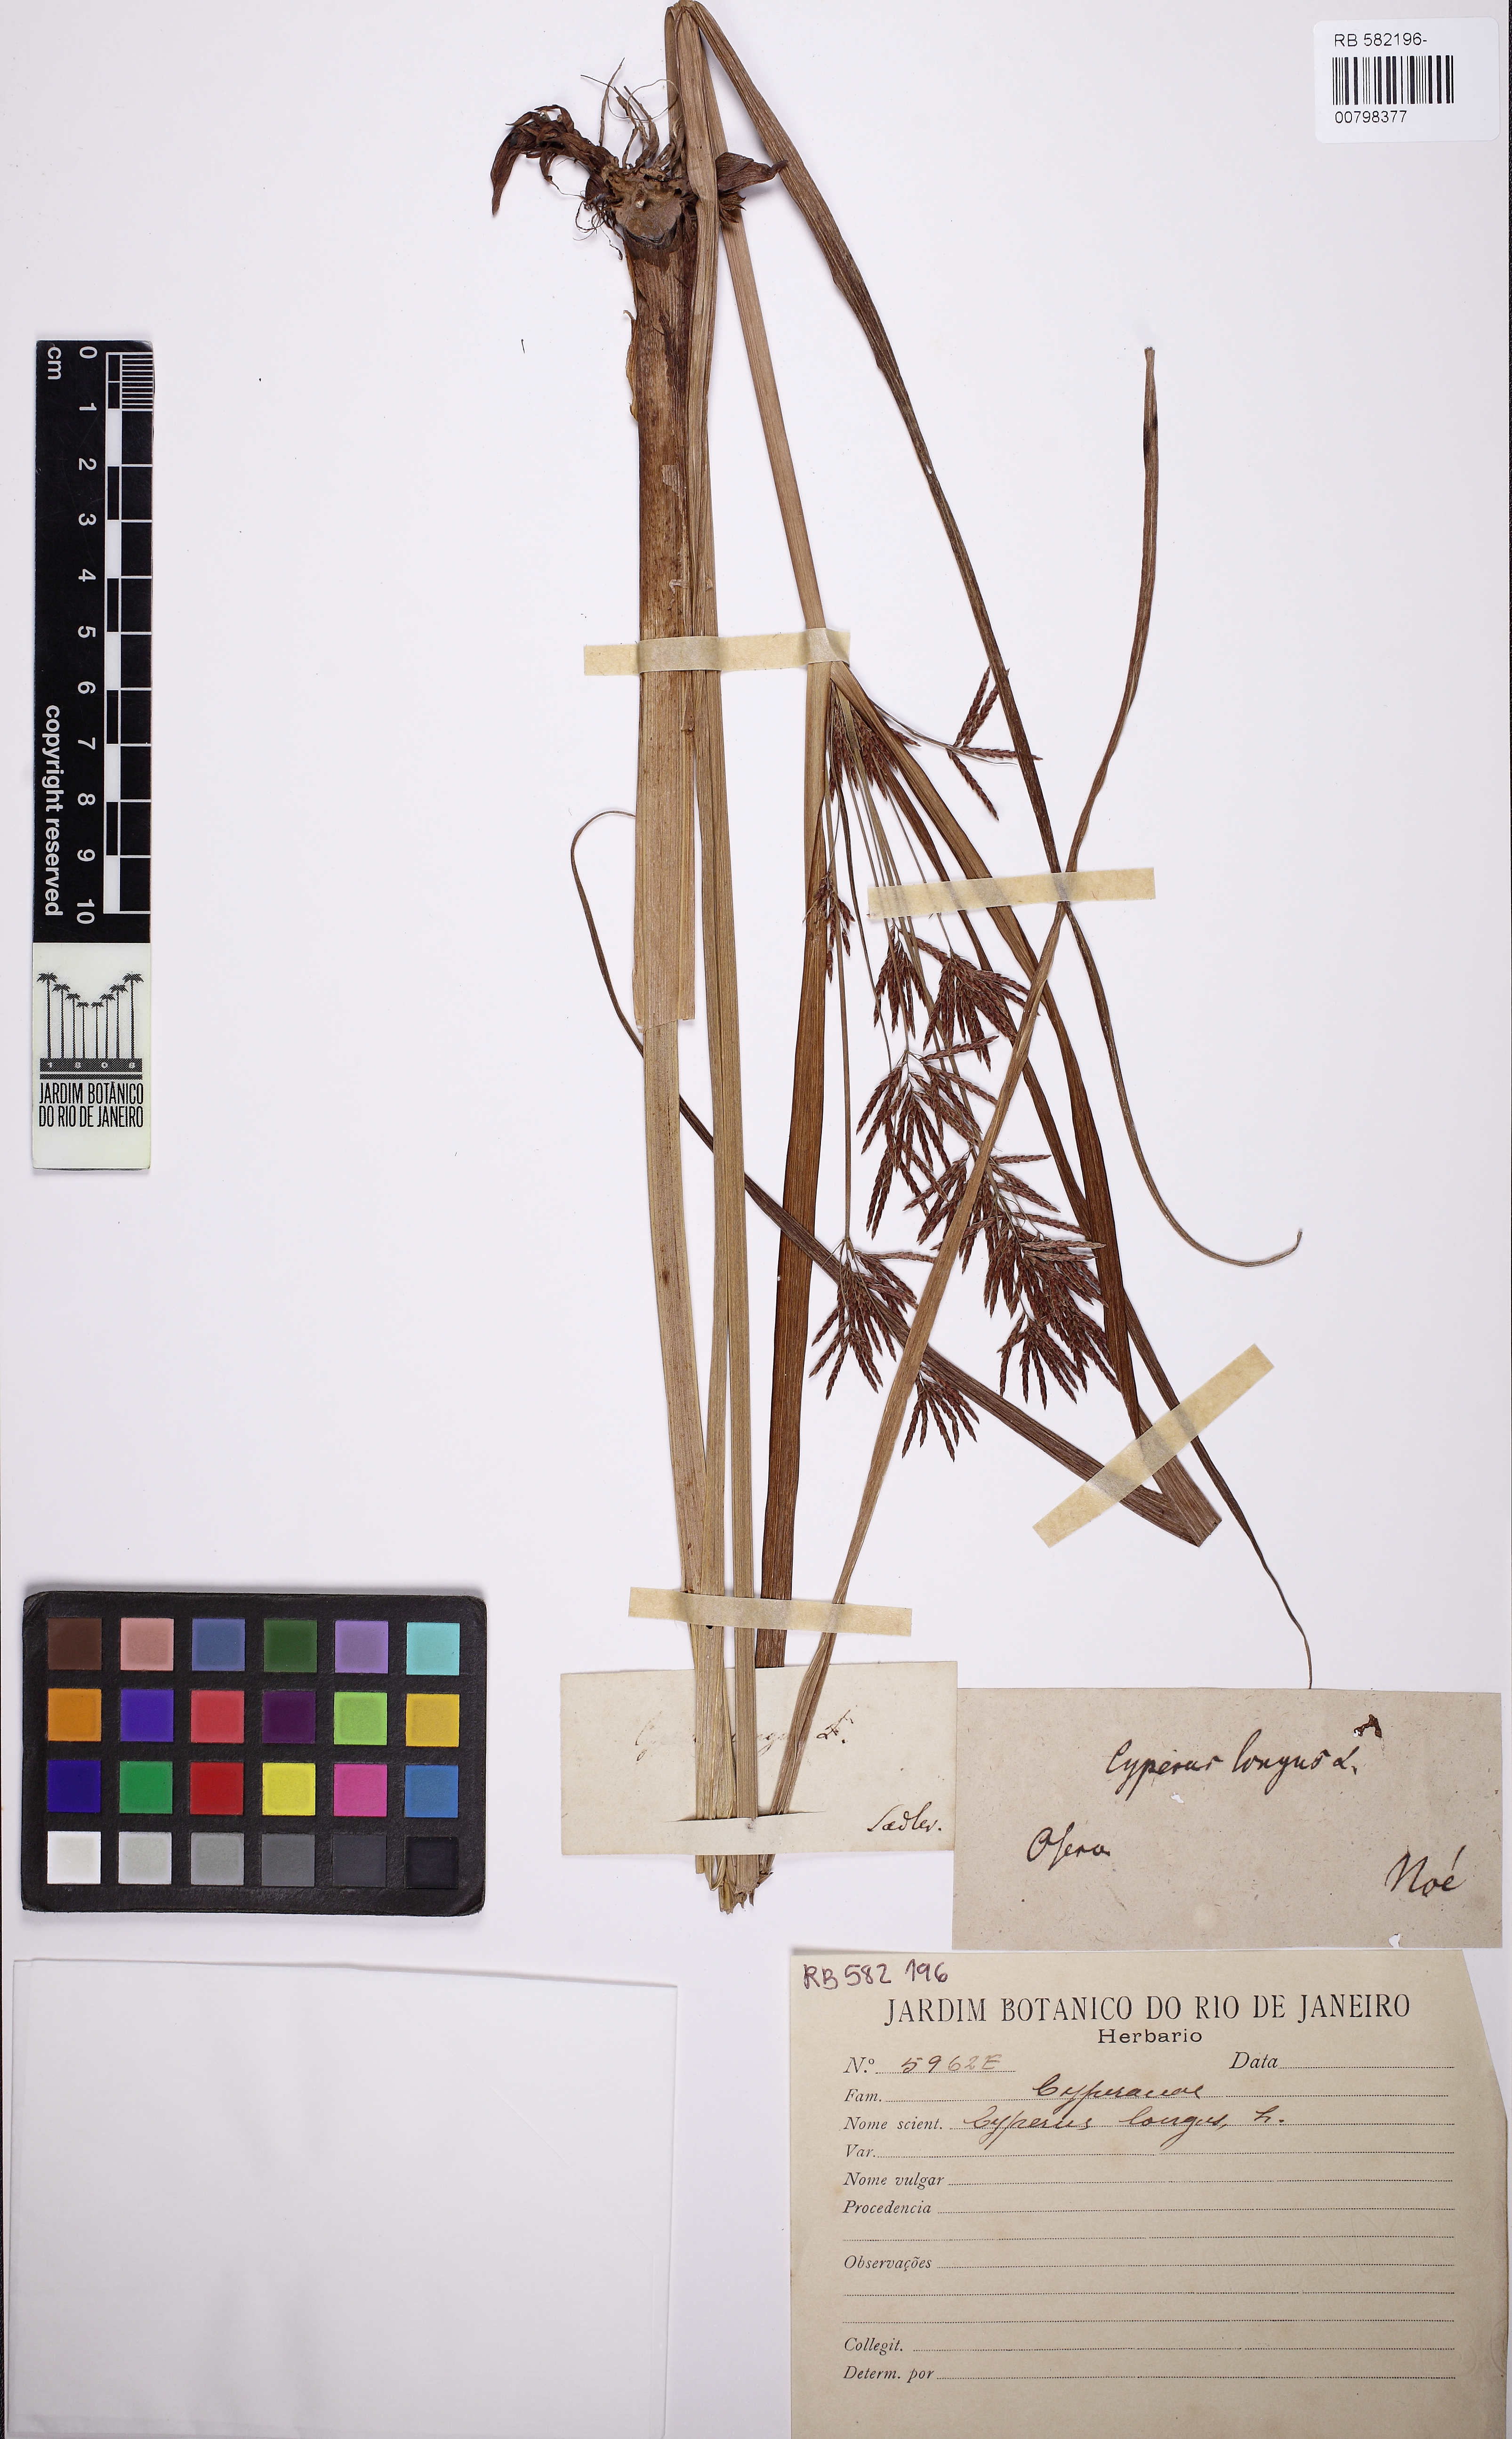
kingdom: Plantae
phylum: Tracheophyta
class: Liliopsida
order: Poales
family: Cyperaceae
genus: Cyperus
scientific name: Cyperus longus
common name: Galingale
